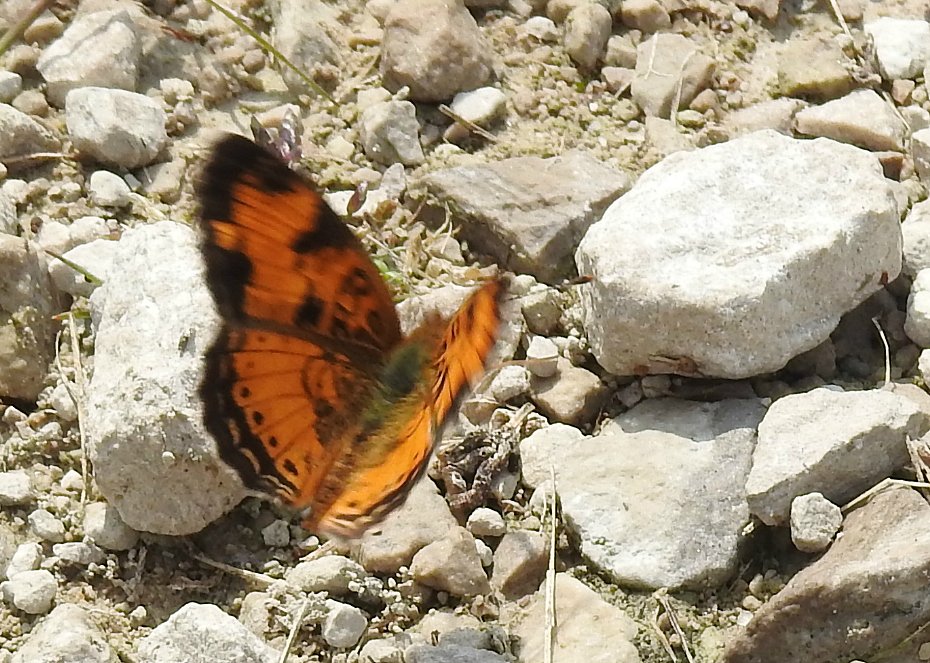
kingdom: Animalia
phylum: Arthropoda
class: Insecta
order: Lepidoptera
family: Nymphalidae
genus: Phyciodes
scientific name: Phyciodes tharos
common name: Northern Crescent
